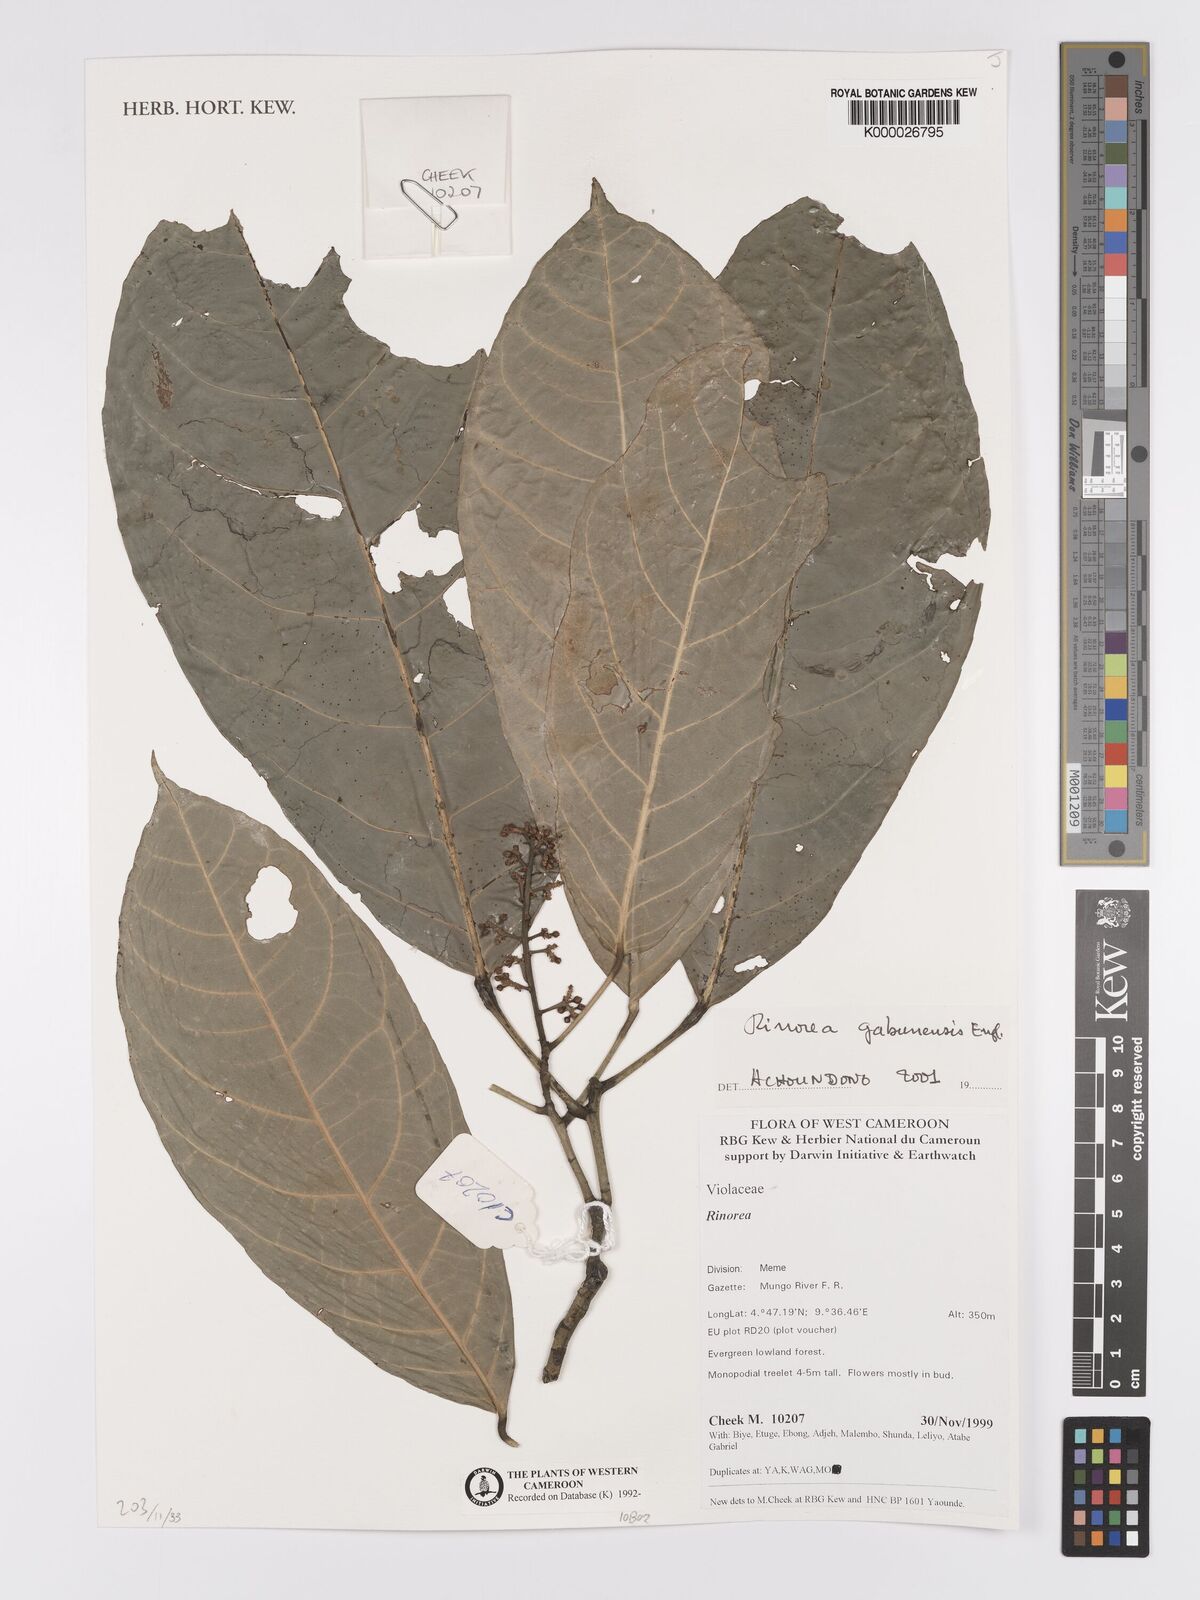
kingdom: Plantae
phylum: Tracheophyta
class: Magnoliopsida
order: Malpighiales
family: Violaceae
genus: Rinorea
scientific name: Rinorea gabunensis
